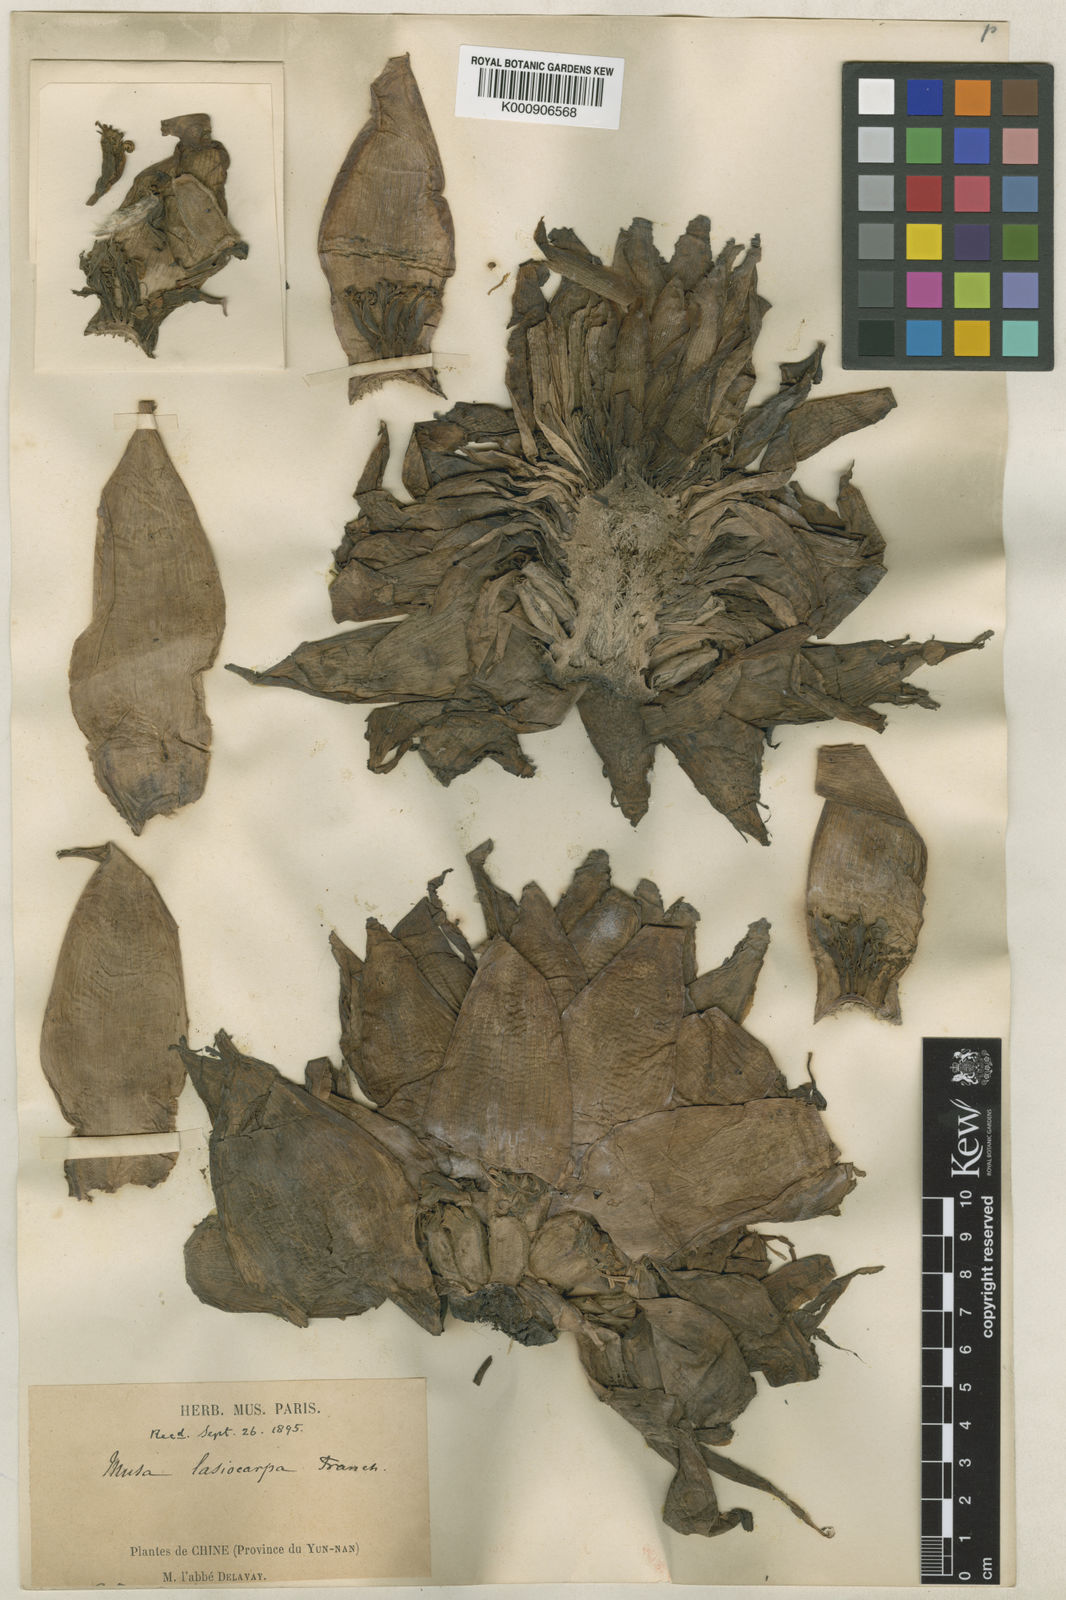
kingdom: Plantae
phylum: Tracheophyta
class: Liliopsida
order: Zingiberales
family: Musaceae
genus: Musella
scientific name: Musella lasiocarpa
